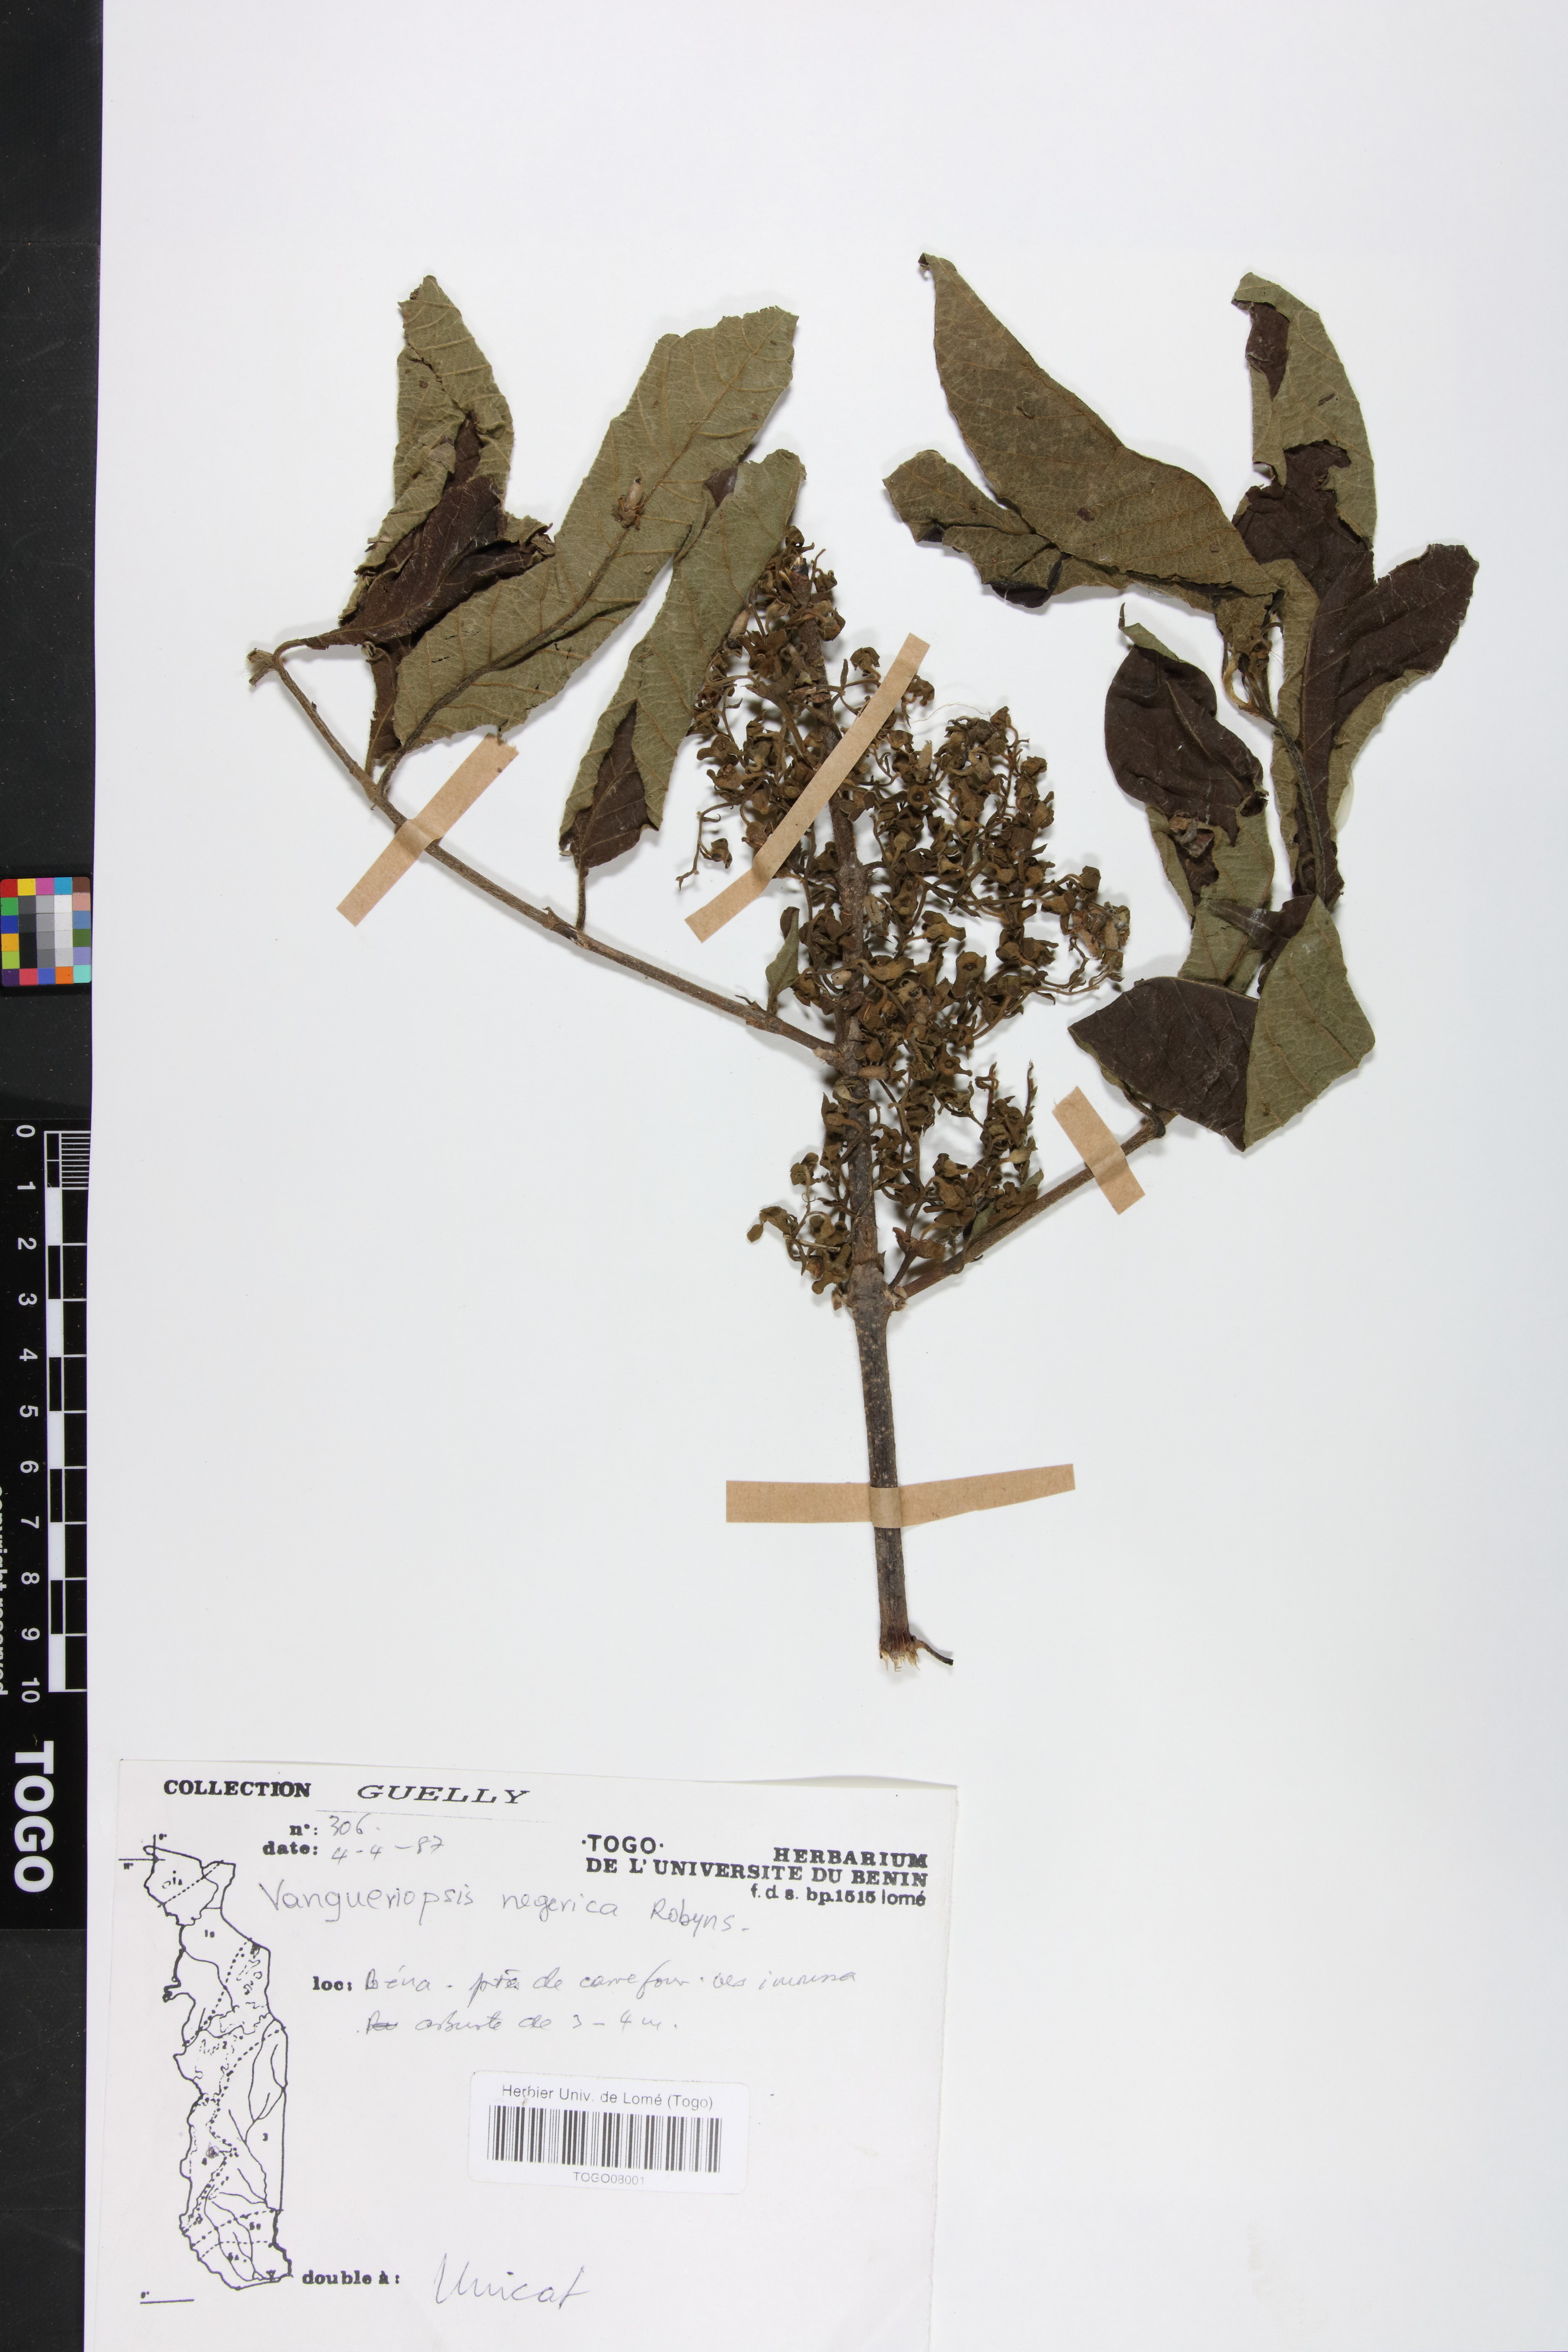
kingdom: Plantae
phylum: Tracheophyta
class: Magnoliopsida
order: Gentianales
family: Rubiaceae
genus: Vangueriella
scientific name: Vangueriella nigerica
